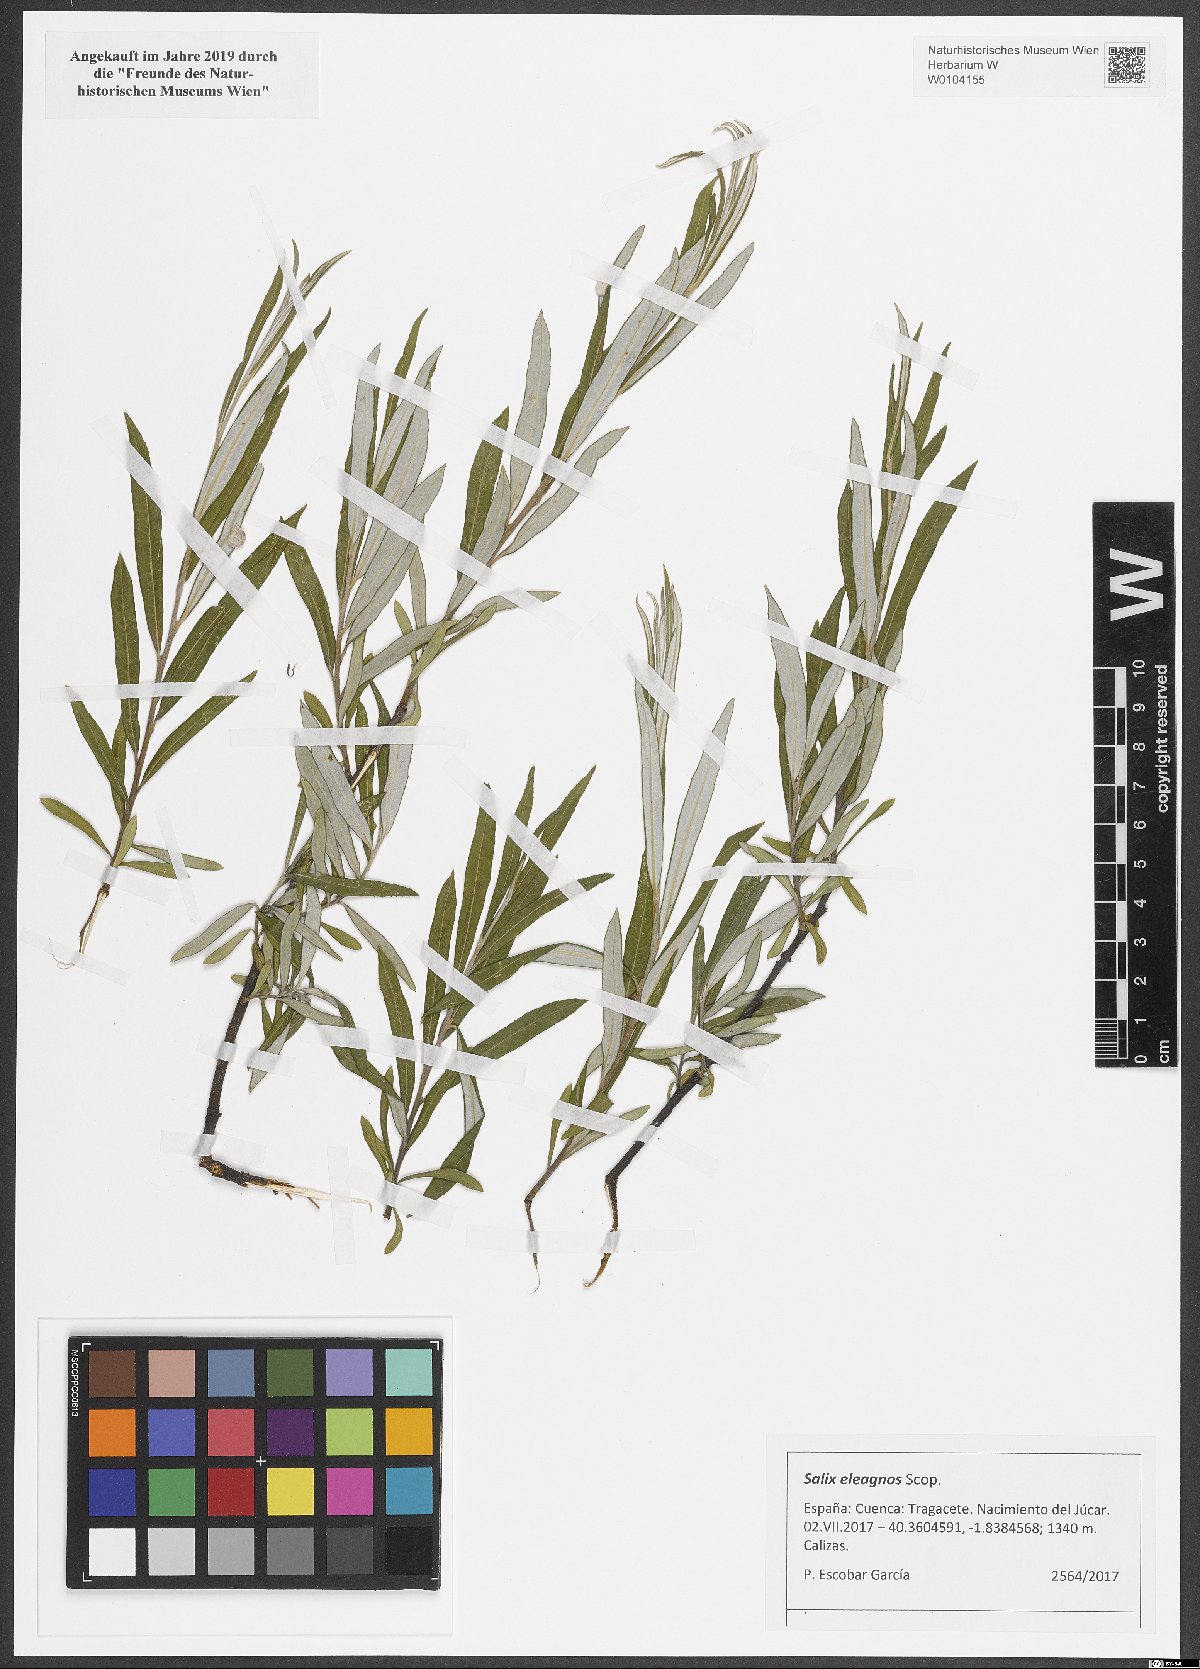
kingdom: Plantae
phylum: Tracheophyta
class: Magnoliopsida
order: Malpighiales
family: Salicaceae
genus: Salix
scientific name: Salix eleagnos
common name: Elaeagnus willow
